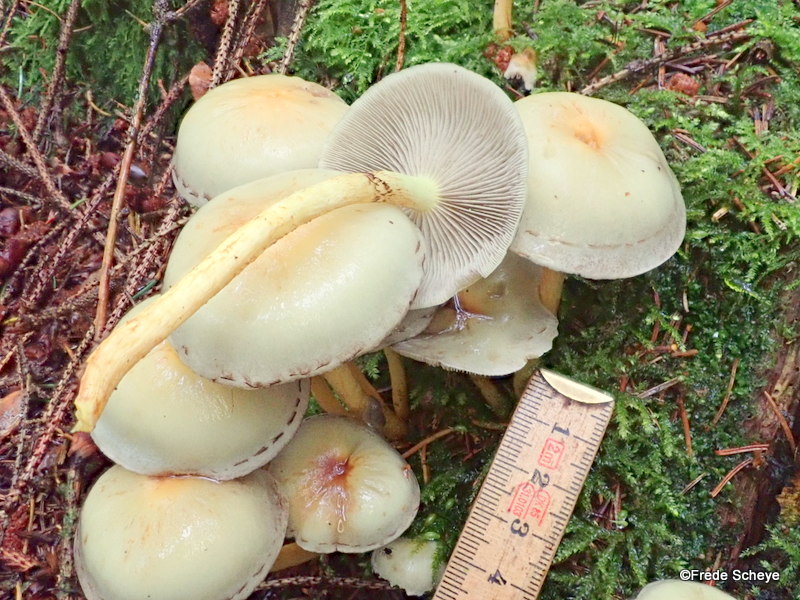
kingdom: Fungi
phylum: Basidiomycota
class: Agaricomycetes
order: Agaricales
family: Strophariaceae
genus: Hypholoma
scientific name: Hypholoma fasciculare
